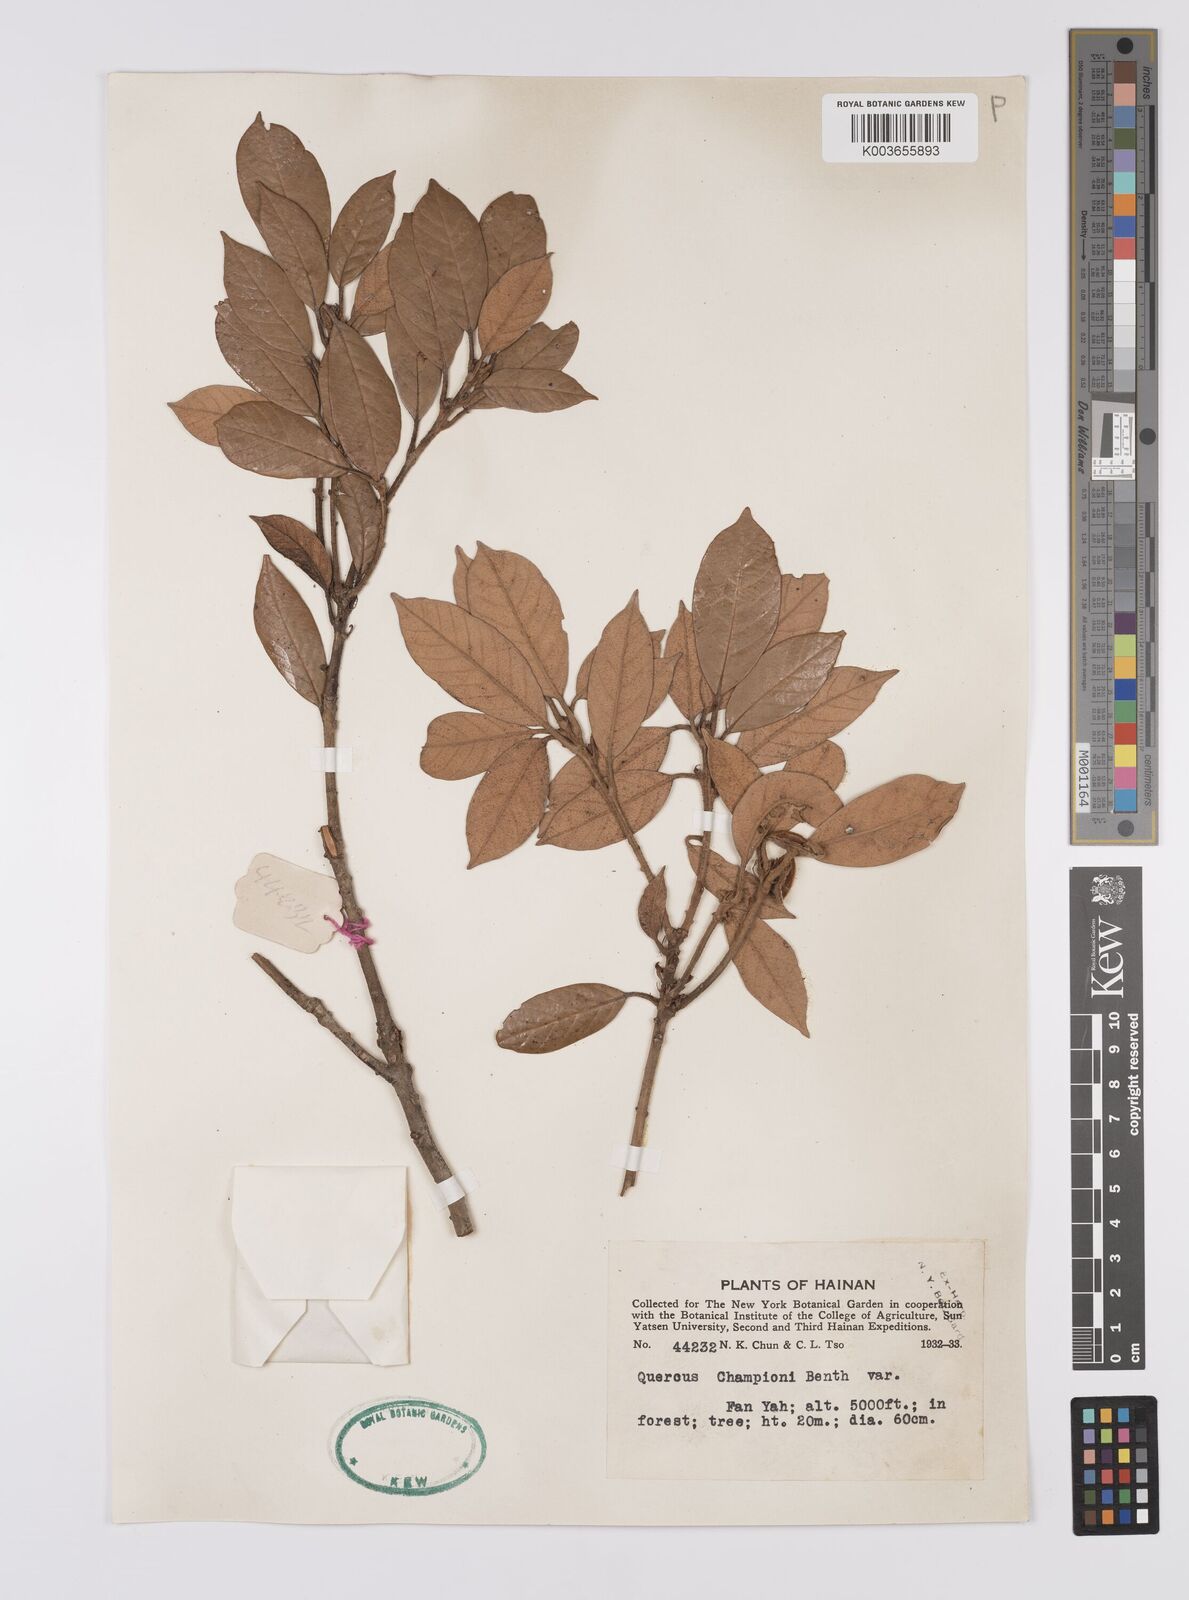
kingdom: Plantae
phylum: Tracheophyta
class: Magnoliopsida
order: Fagales
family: Fagaceae
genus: Quercus
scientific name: Quercus championii
